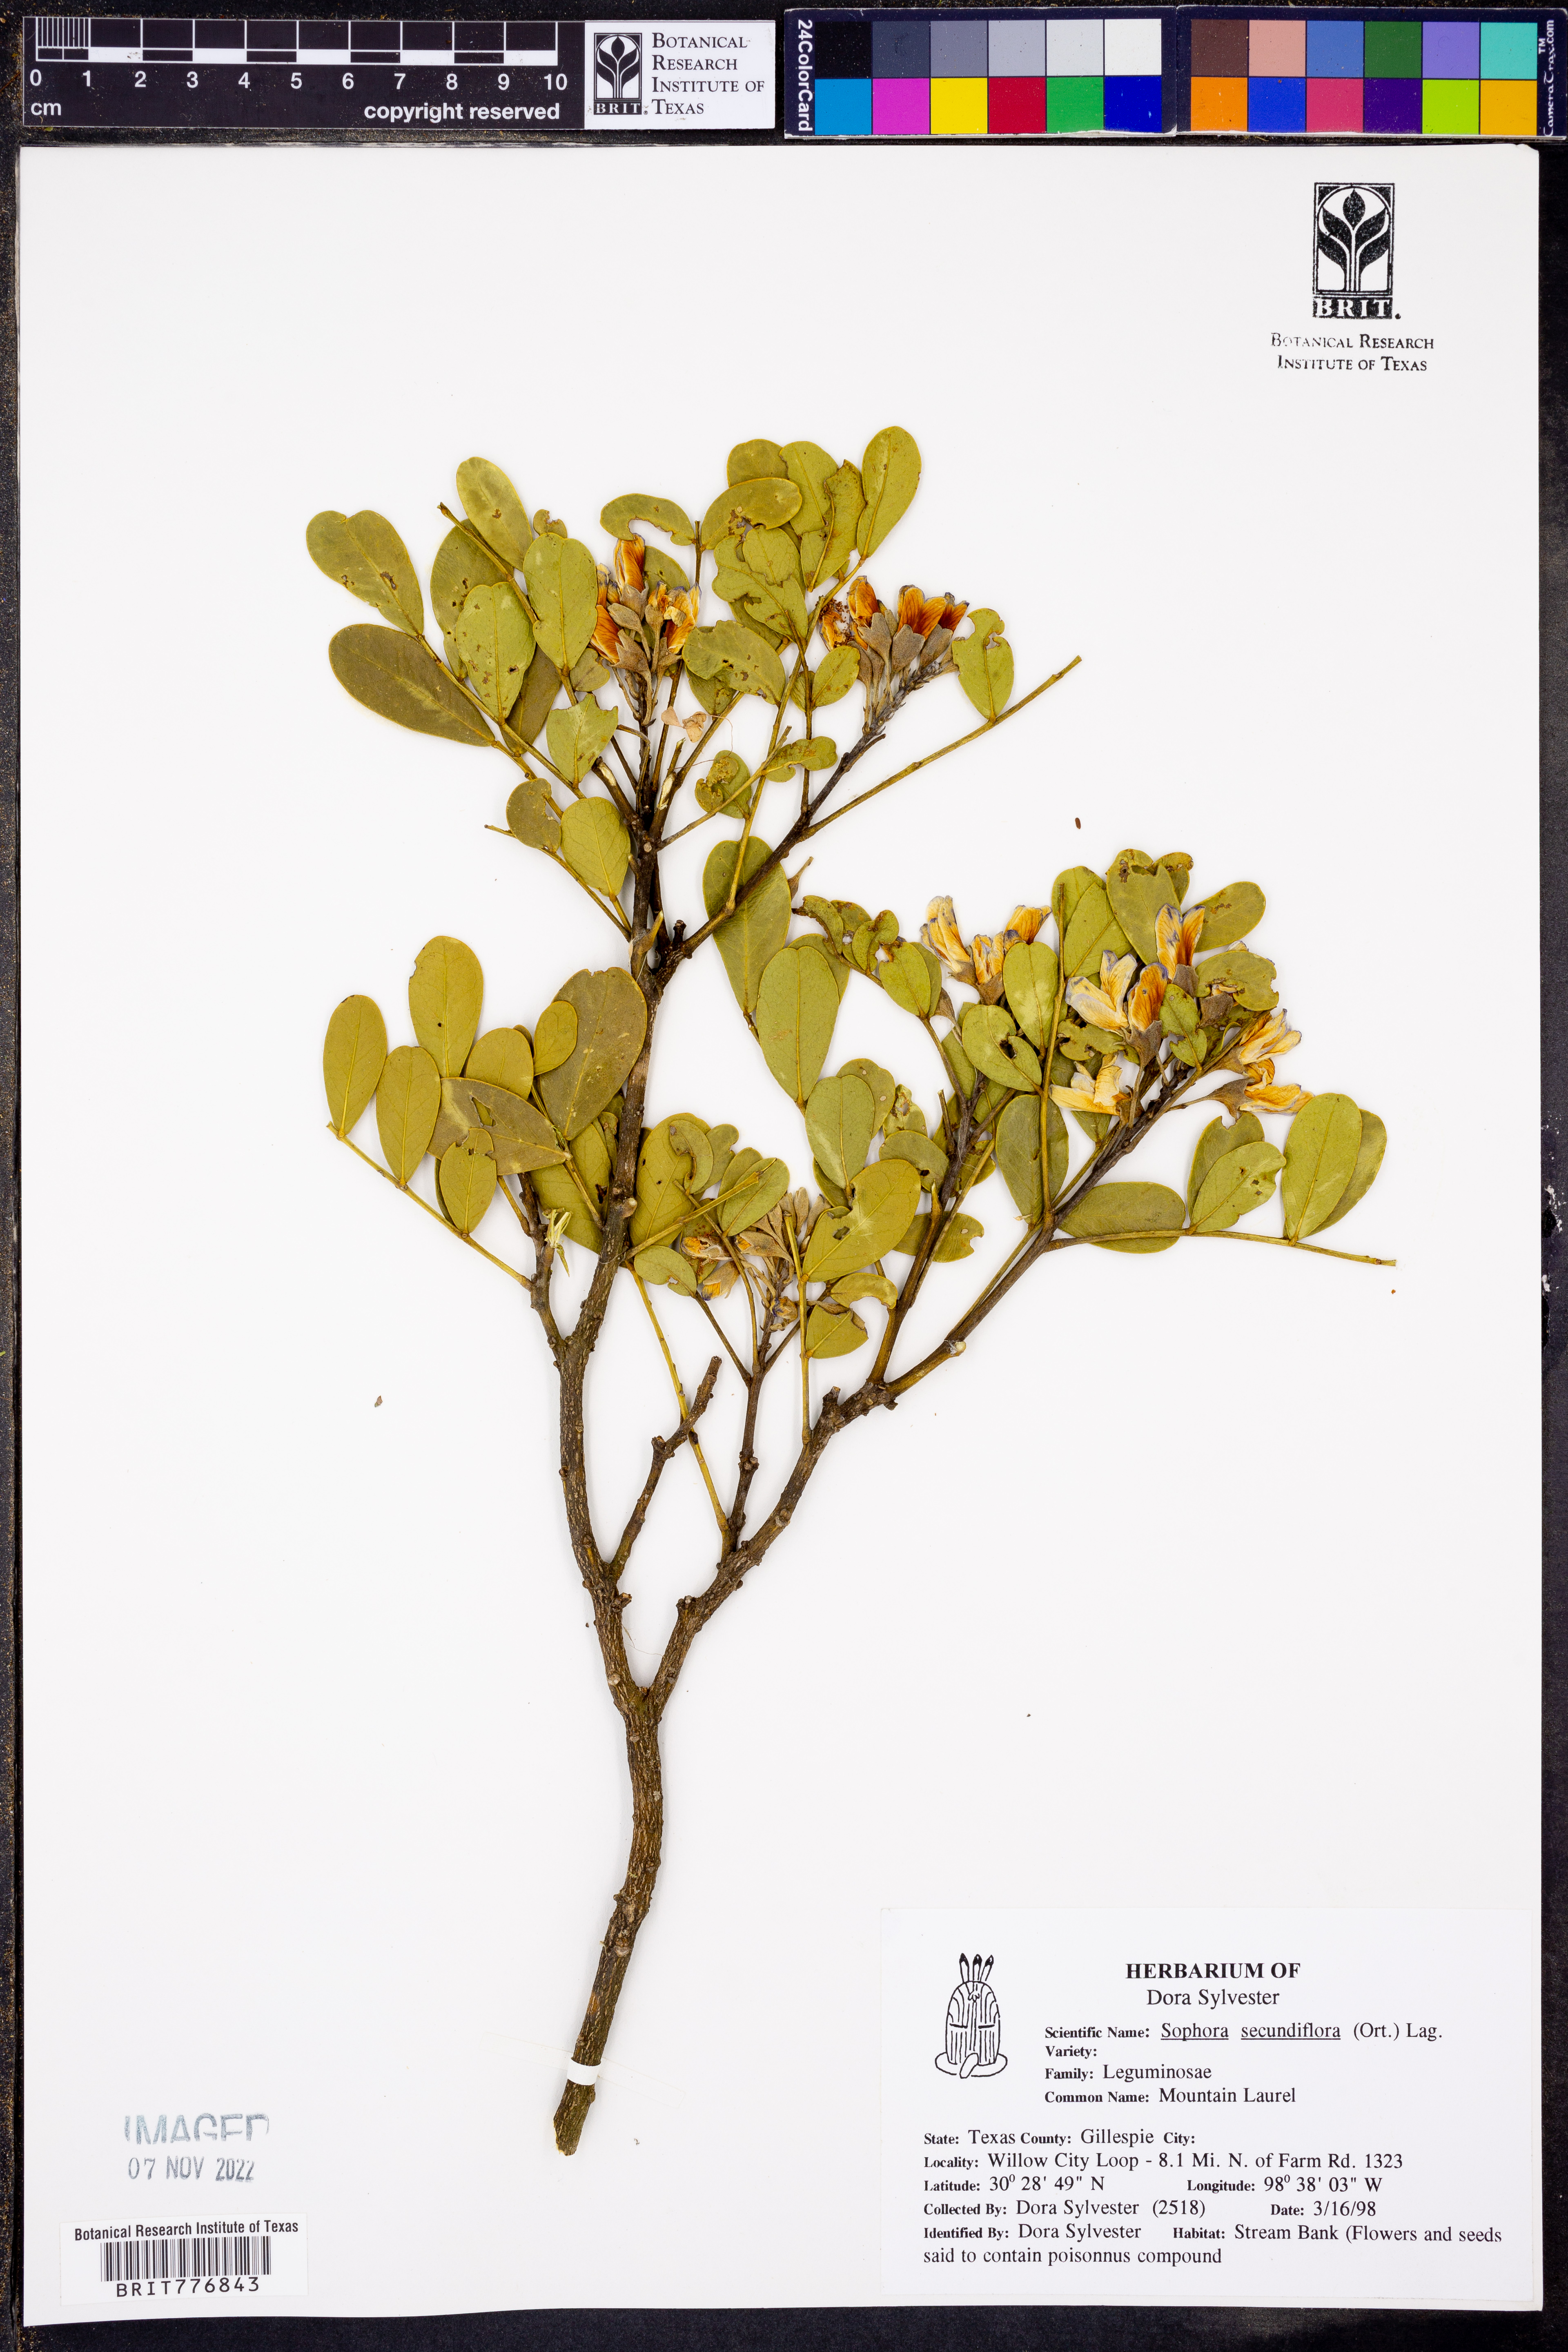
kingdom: Plantae
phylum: Tracheophyta
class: Magnoliopsida
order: Fabales
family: Fabaceae
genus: Dermatophyllum
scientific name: Dermatophyllum secundiflorum
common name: Texas-mountain-laurel
